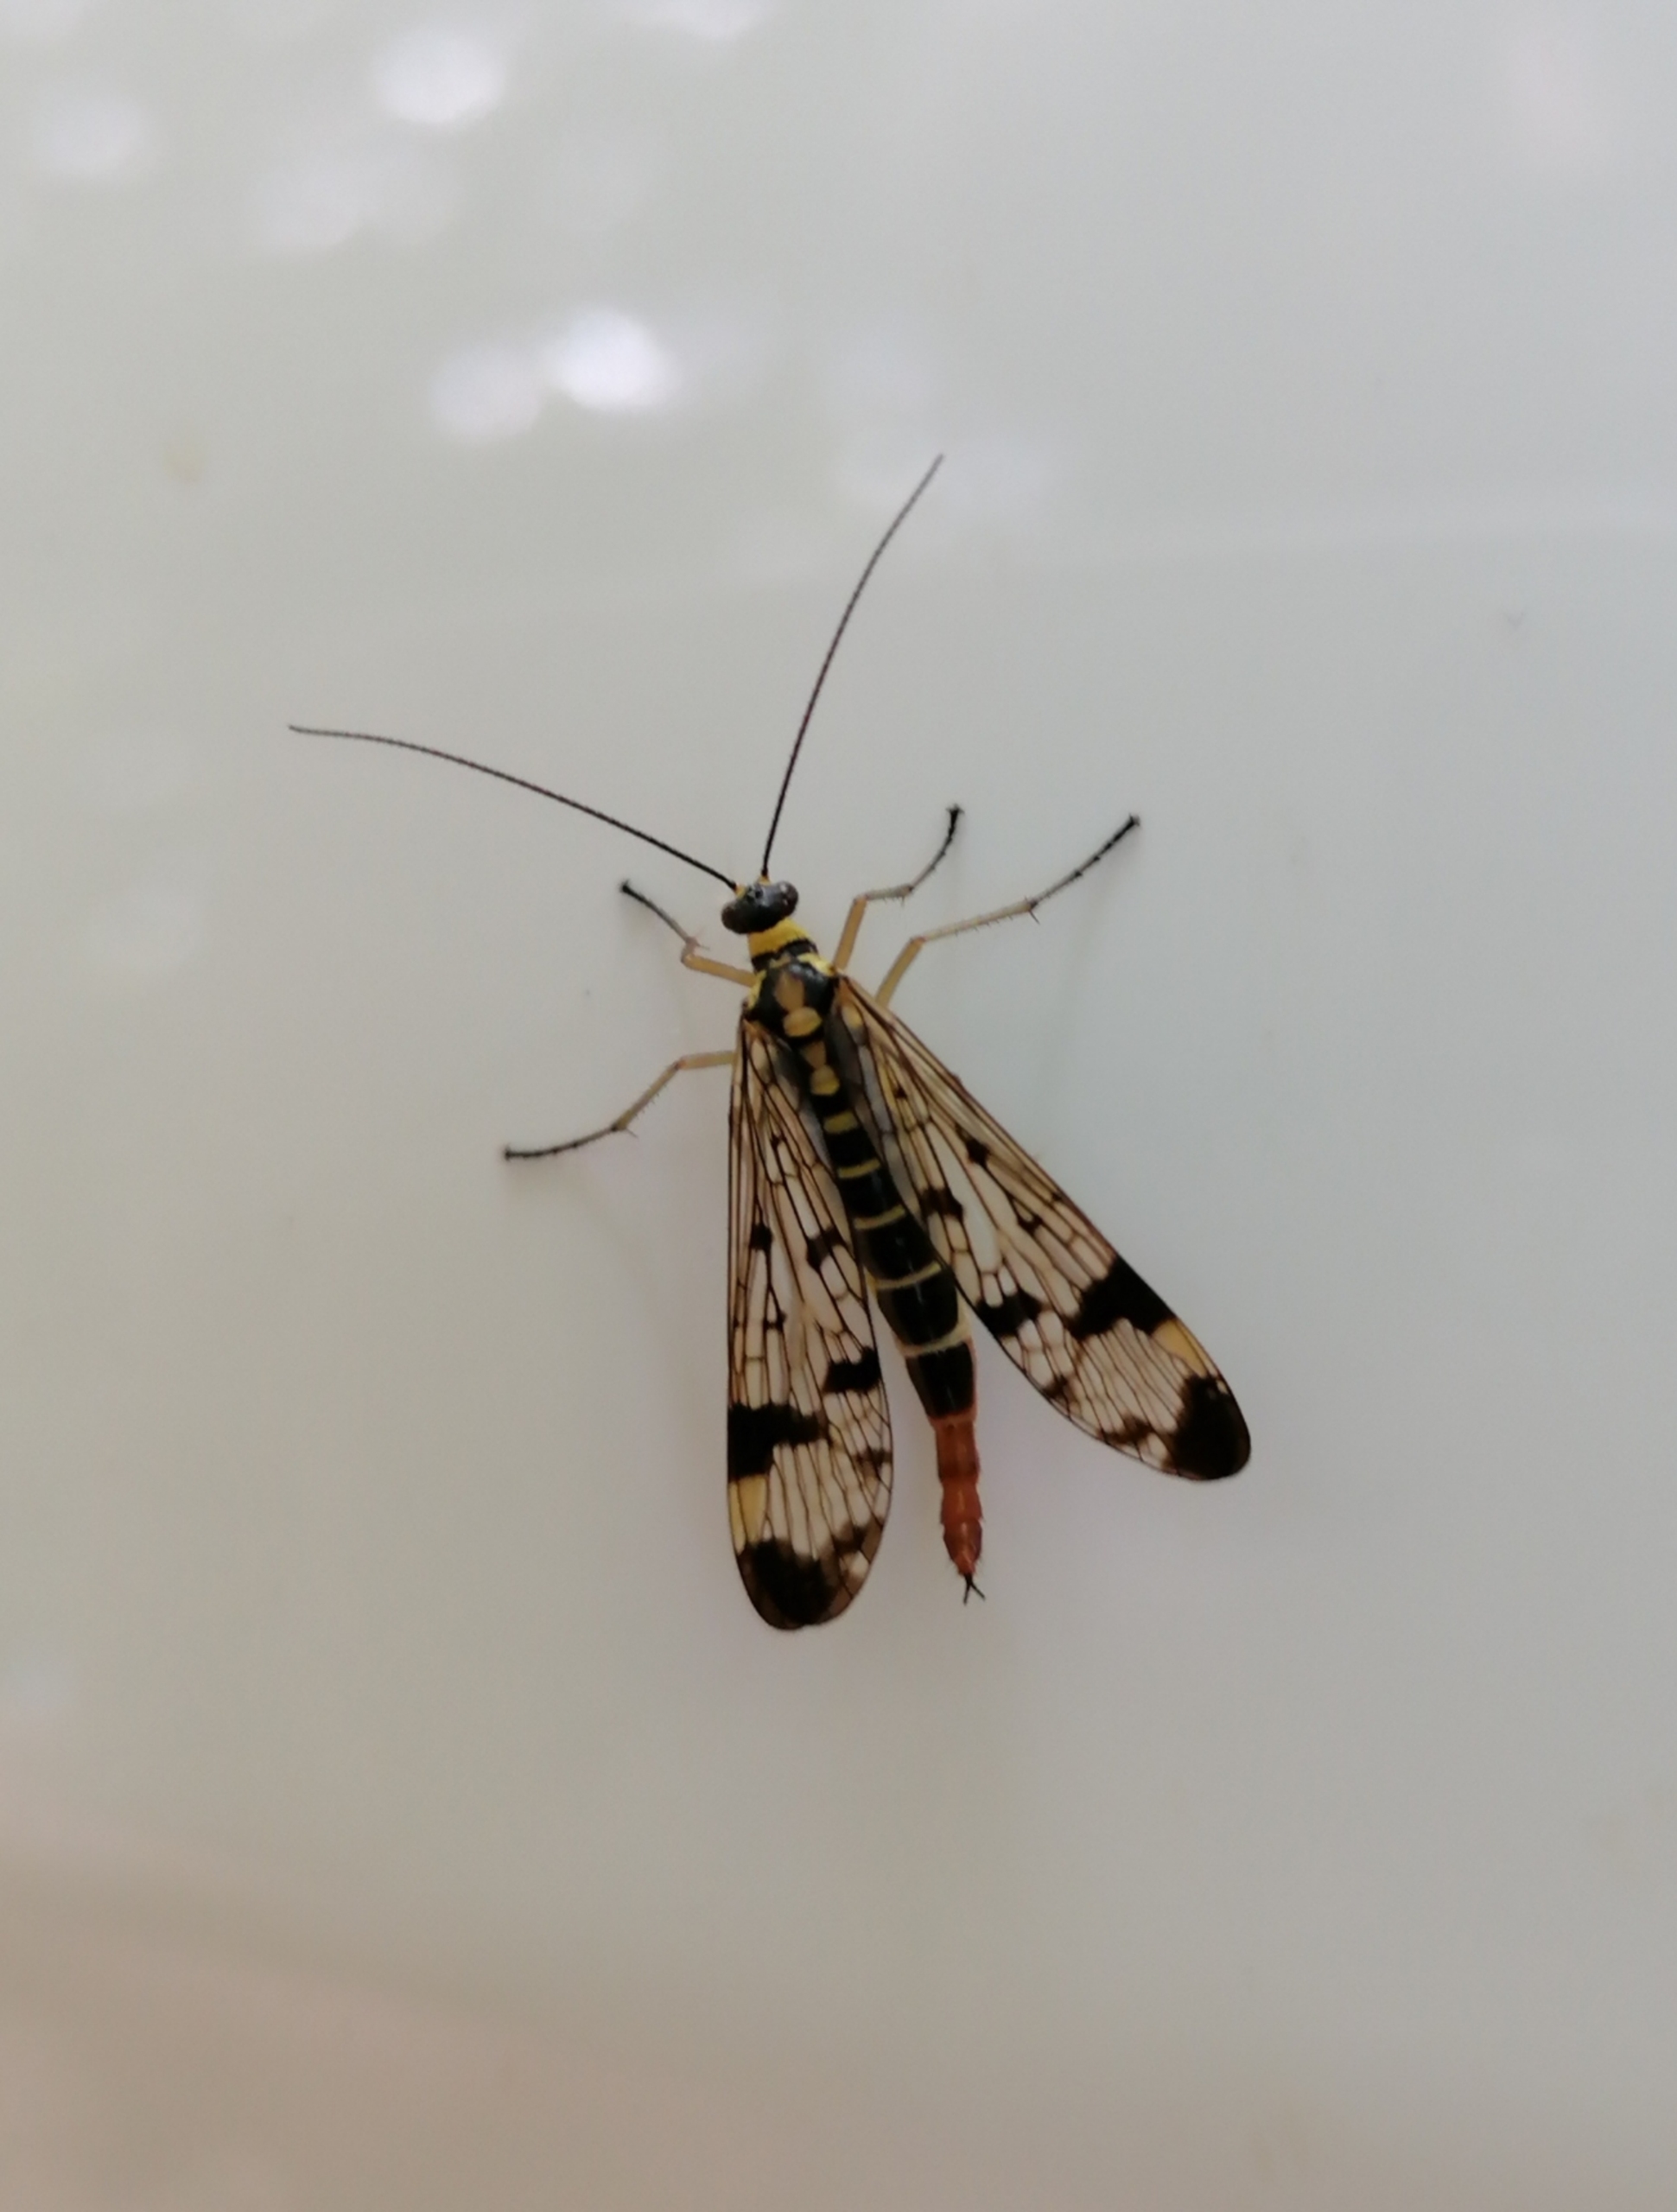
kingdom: Animalia
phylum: Arthropoda
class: Insecta
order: Mecoptera
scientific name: Mecoptera
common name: Skorpionsfluer
